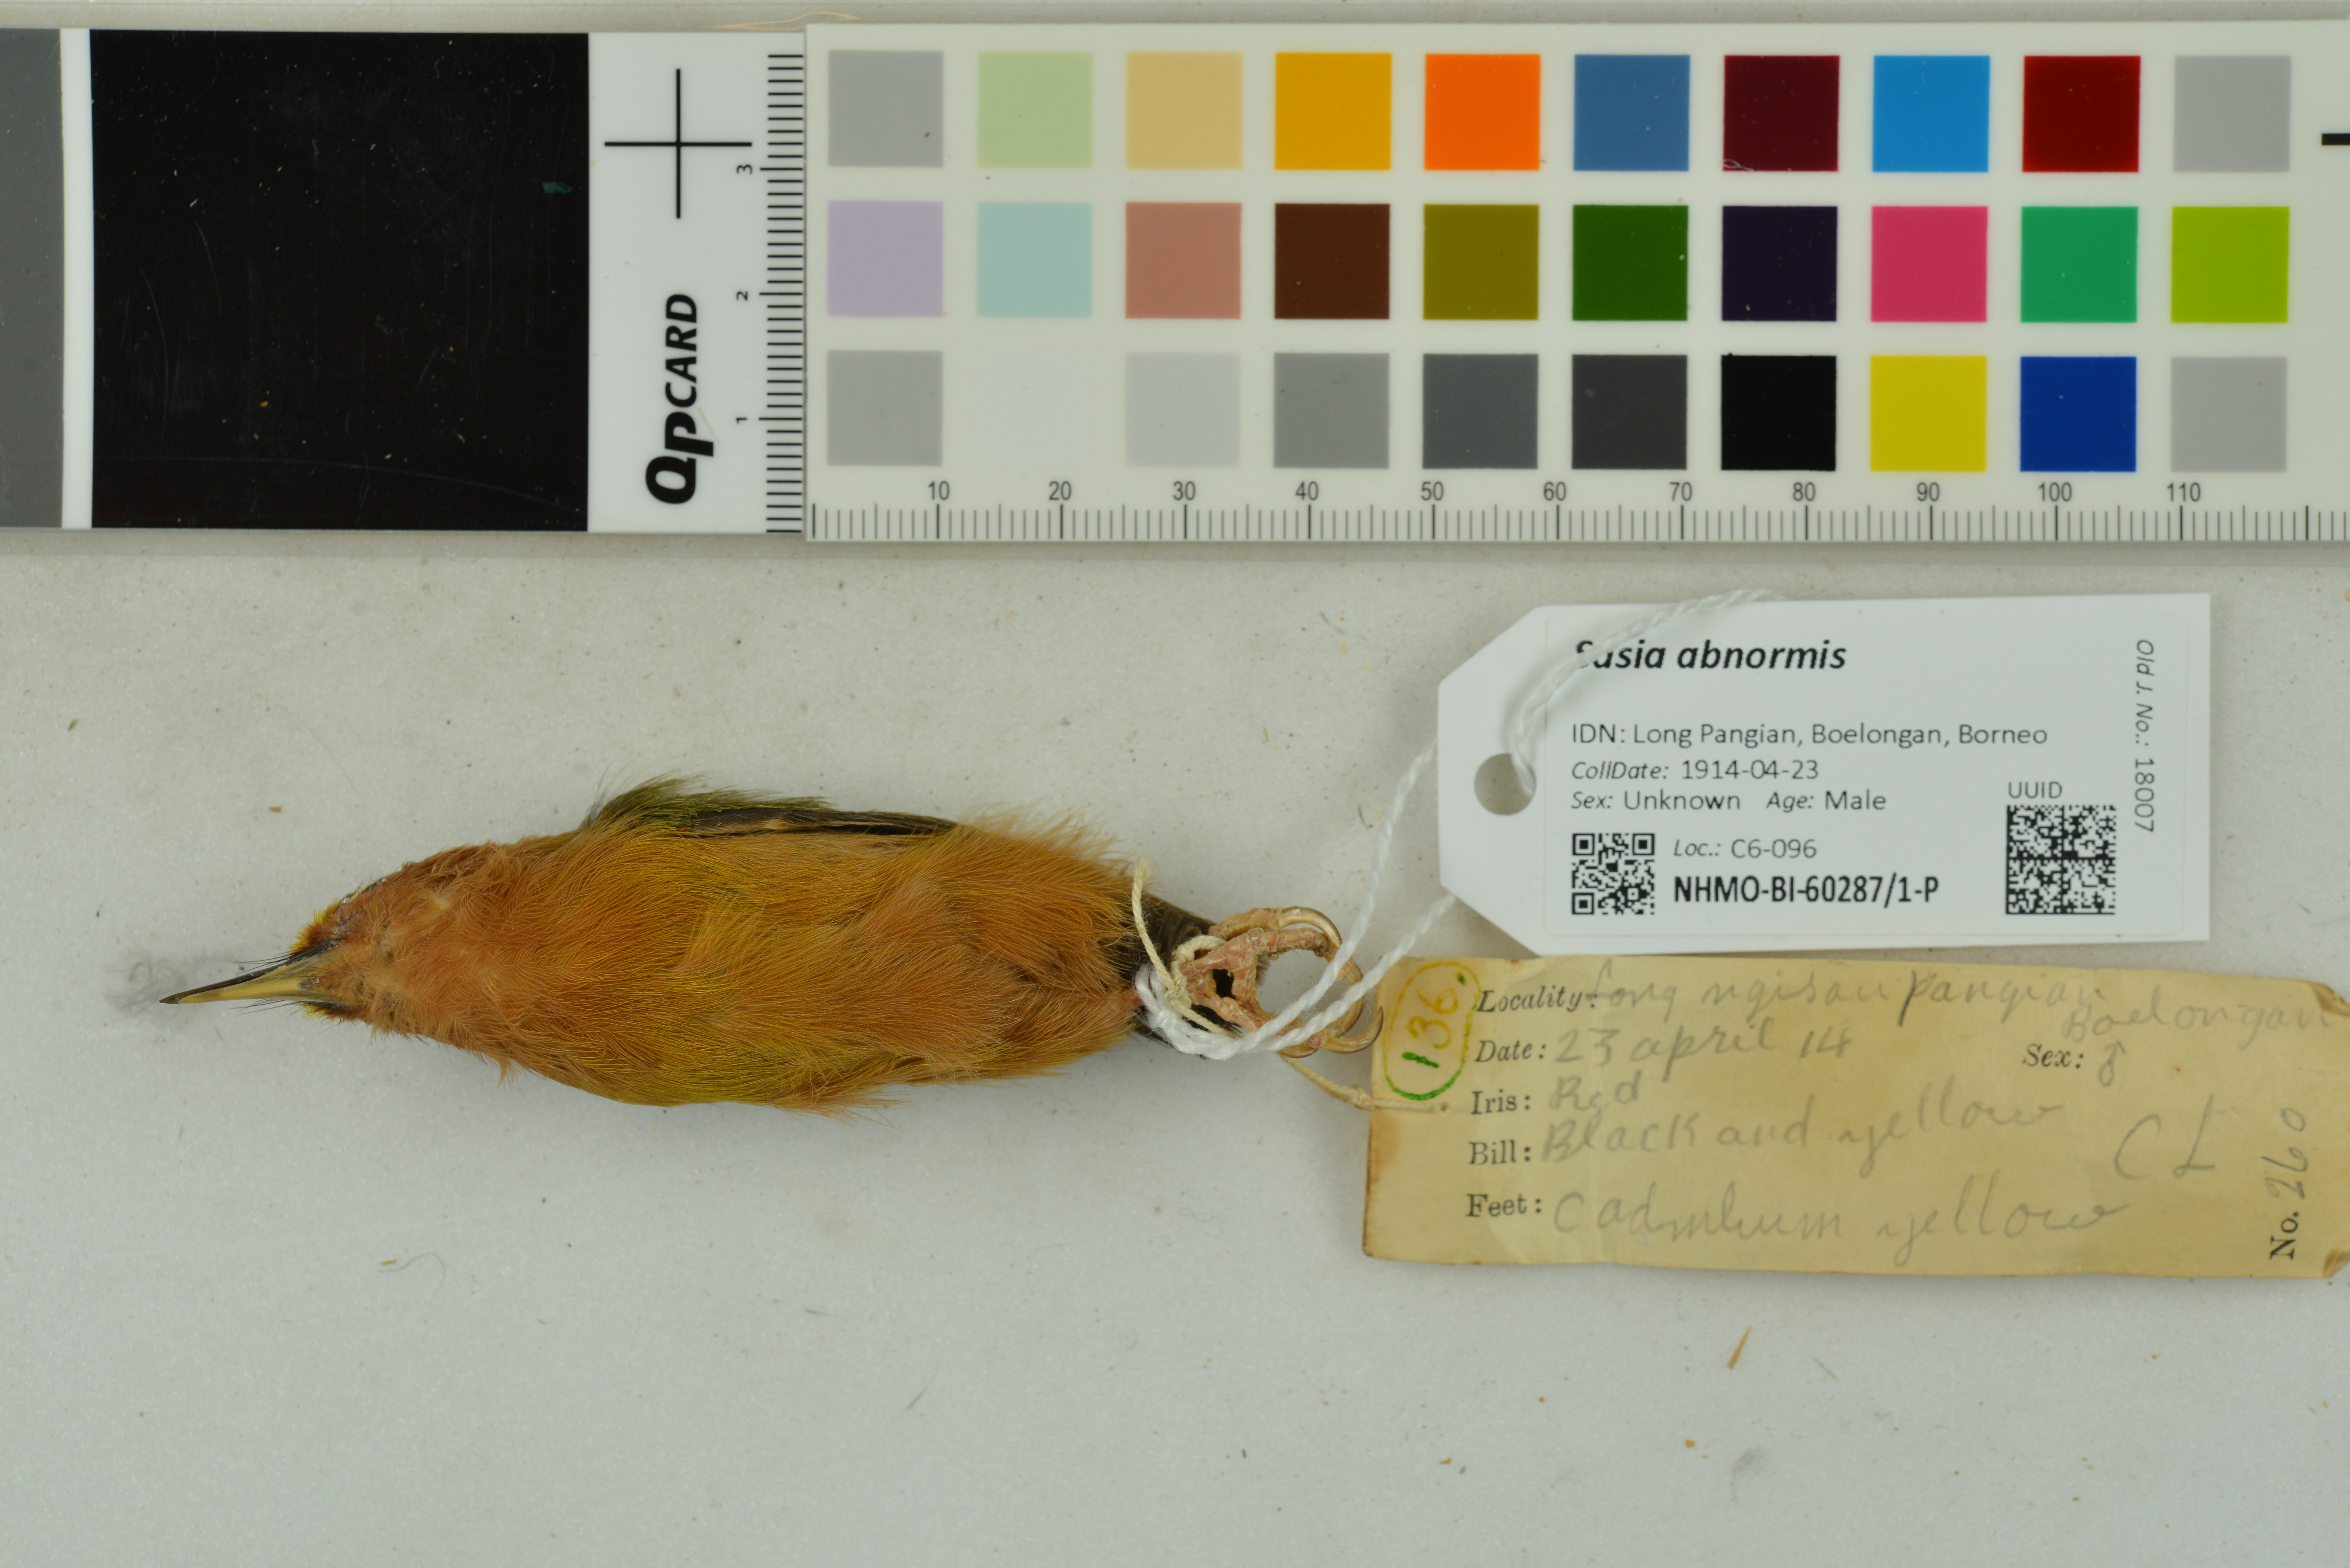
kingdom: Animalia
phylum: Chordata
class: Aves
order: Piciformes
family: Picidae
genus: Sasia
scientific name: Sasia abnormis
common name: Rufous piculet
